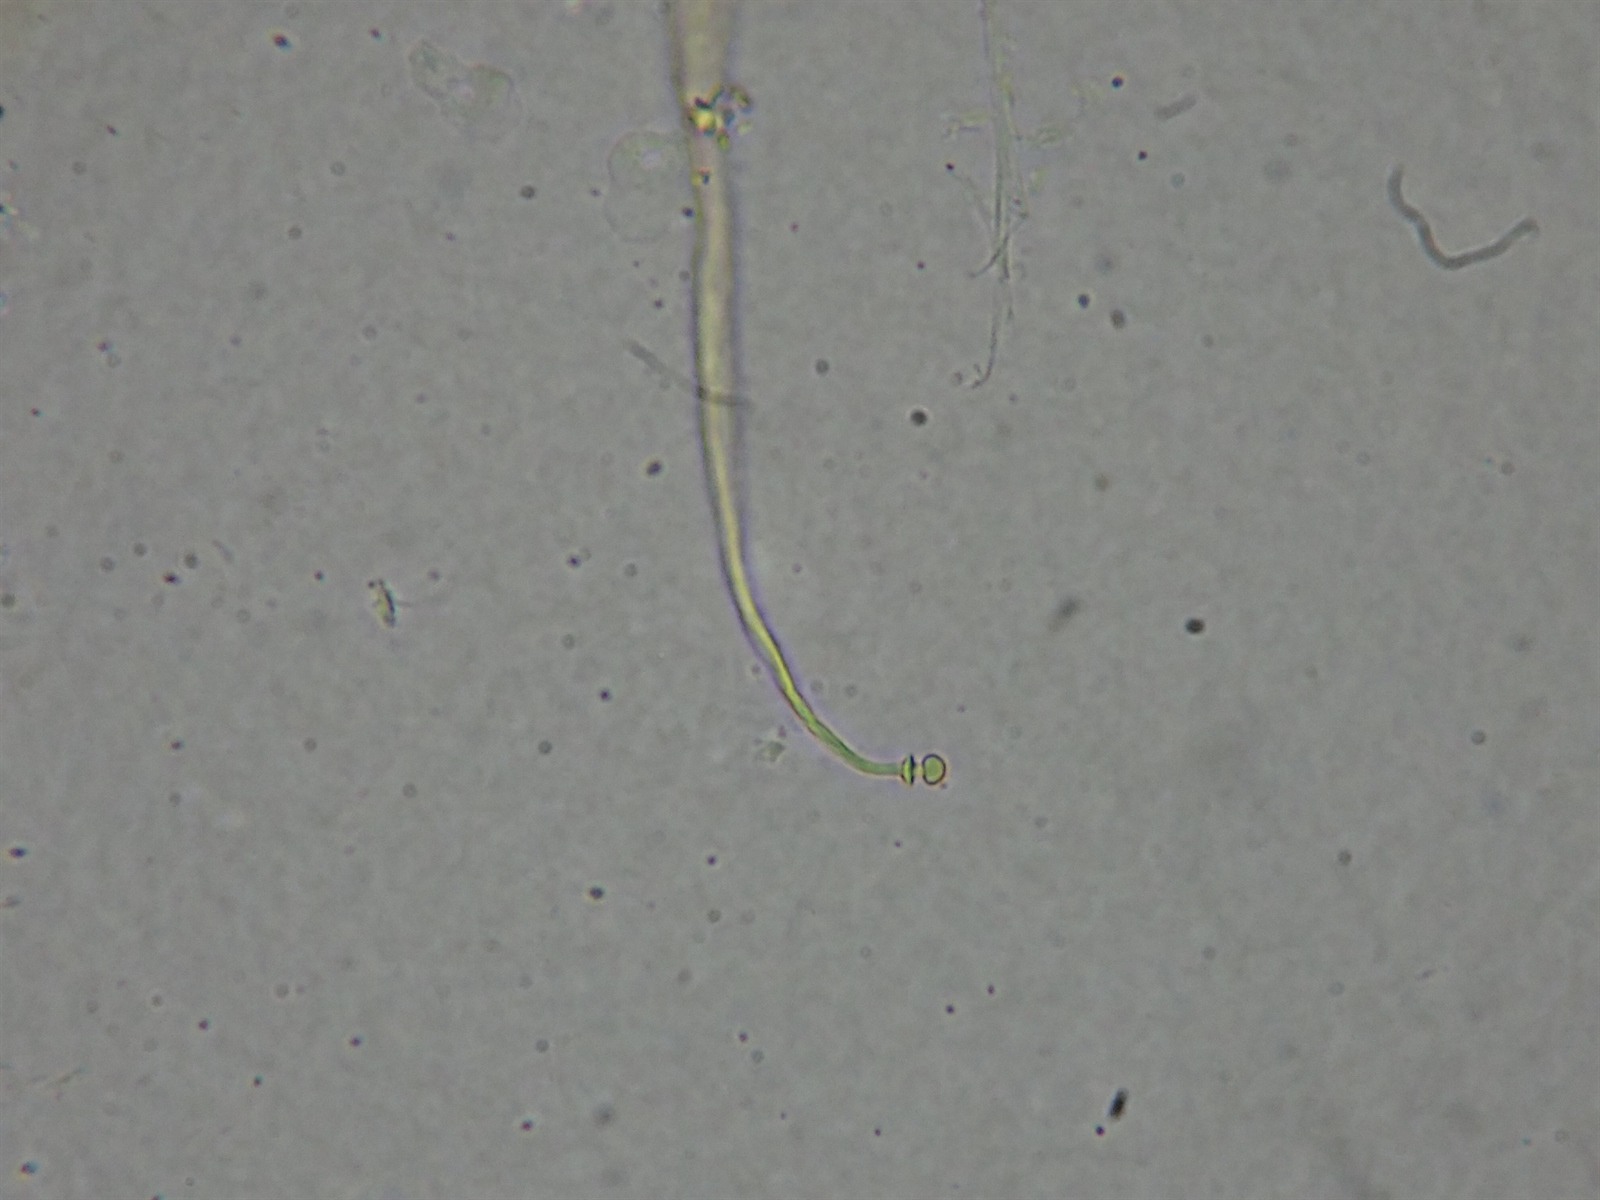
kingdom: Protozoa
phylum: Mycetozoa
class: Myxomycetes
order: Echinosteliales
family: Echinosteliaceae
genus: Echinostelium
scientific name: Echinostelium corynophorum
